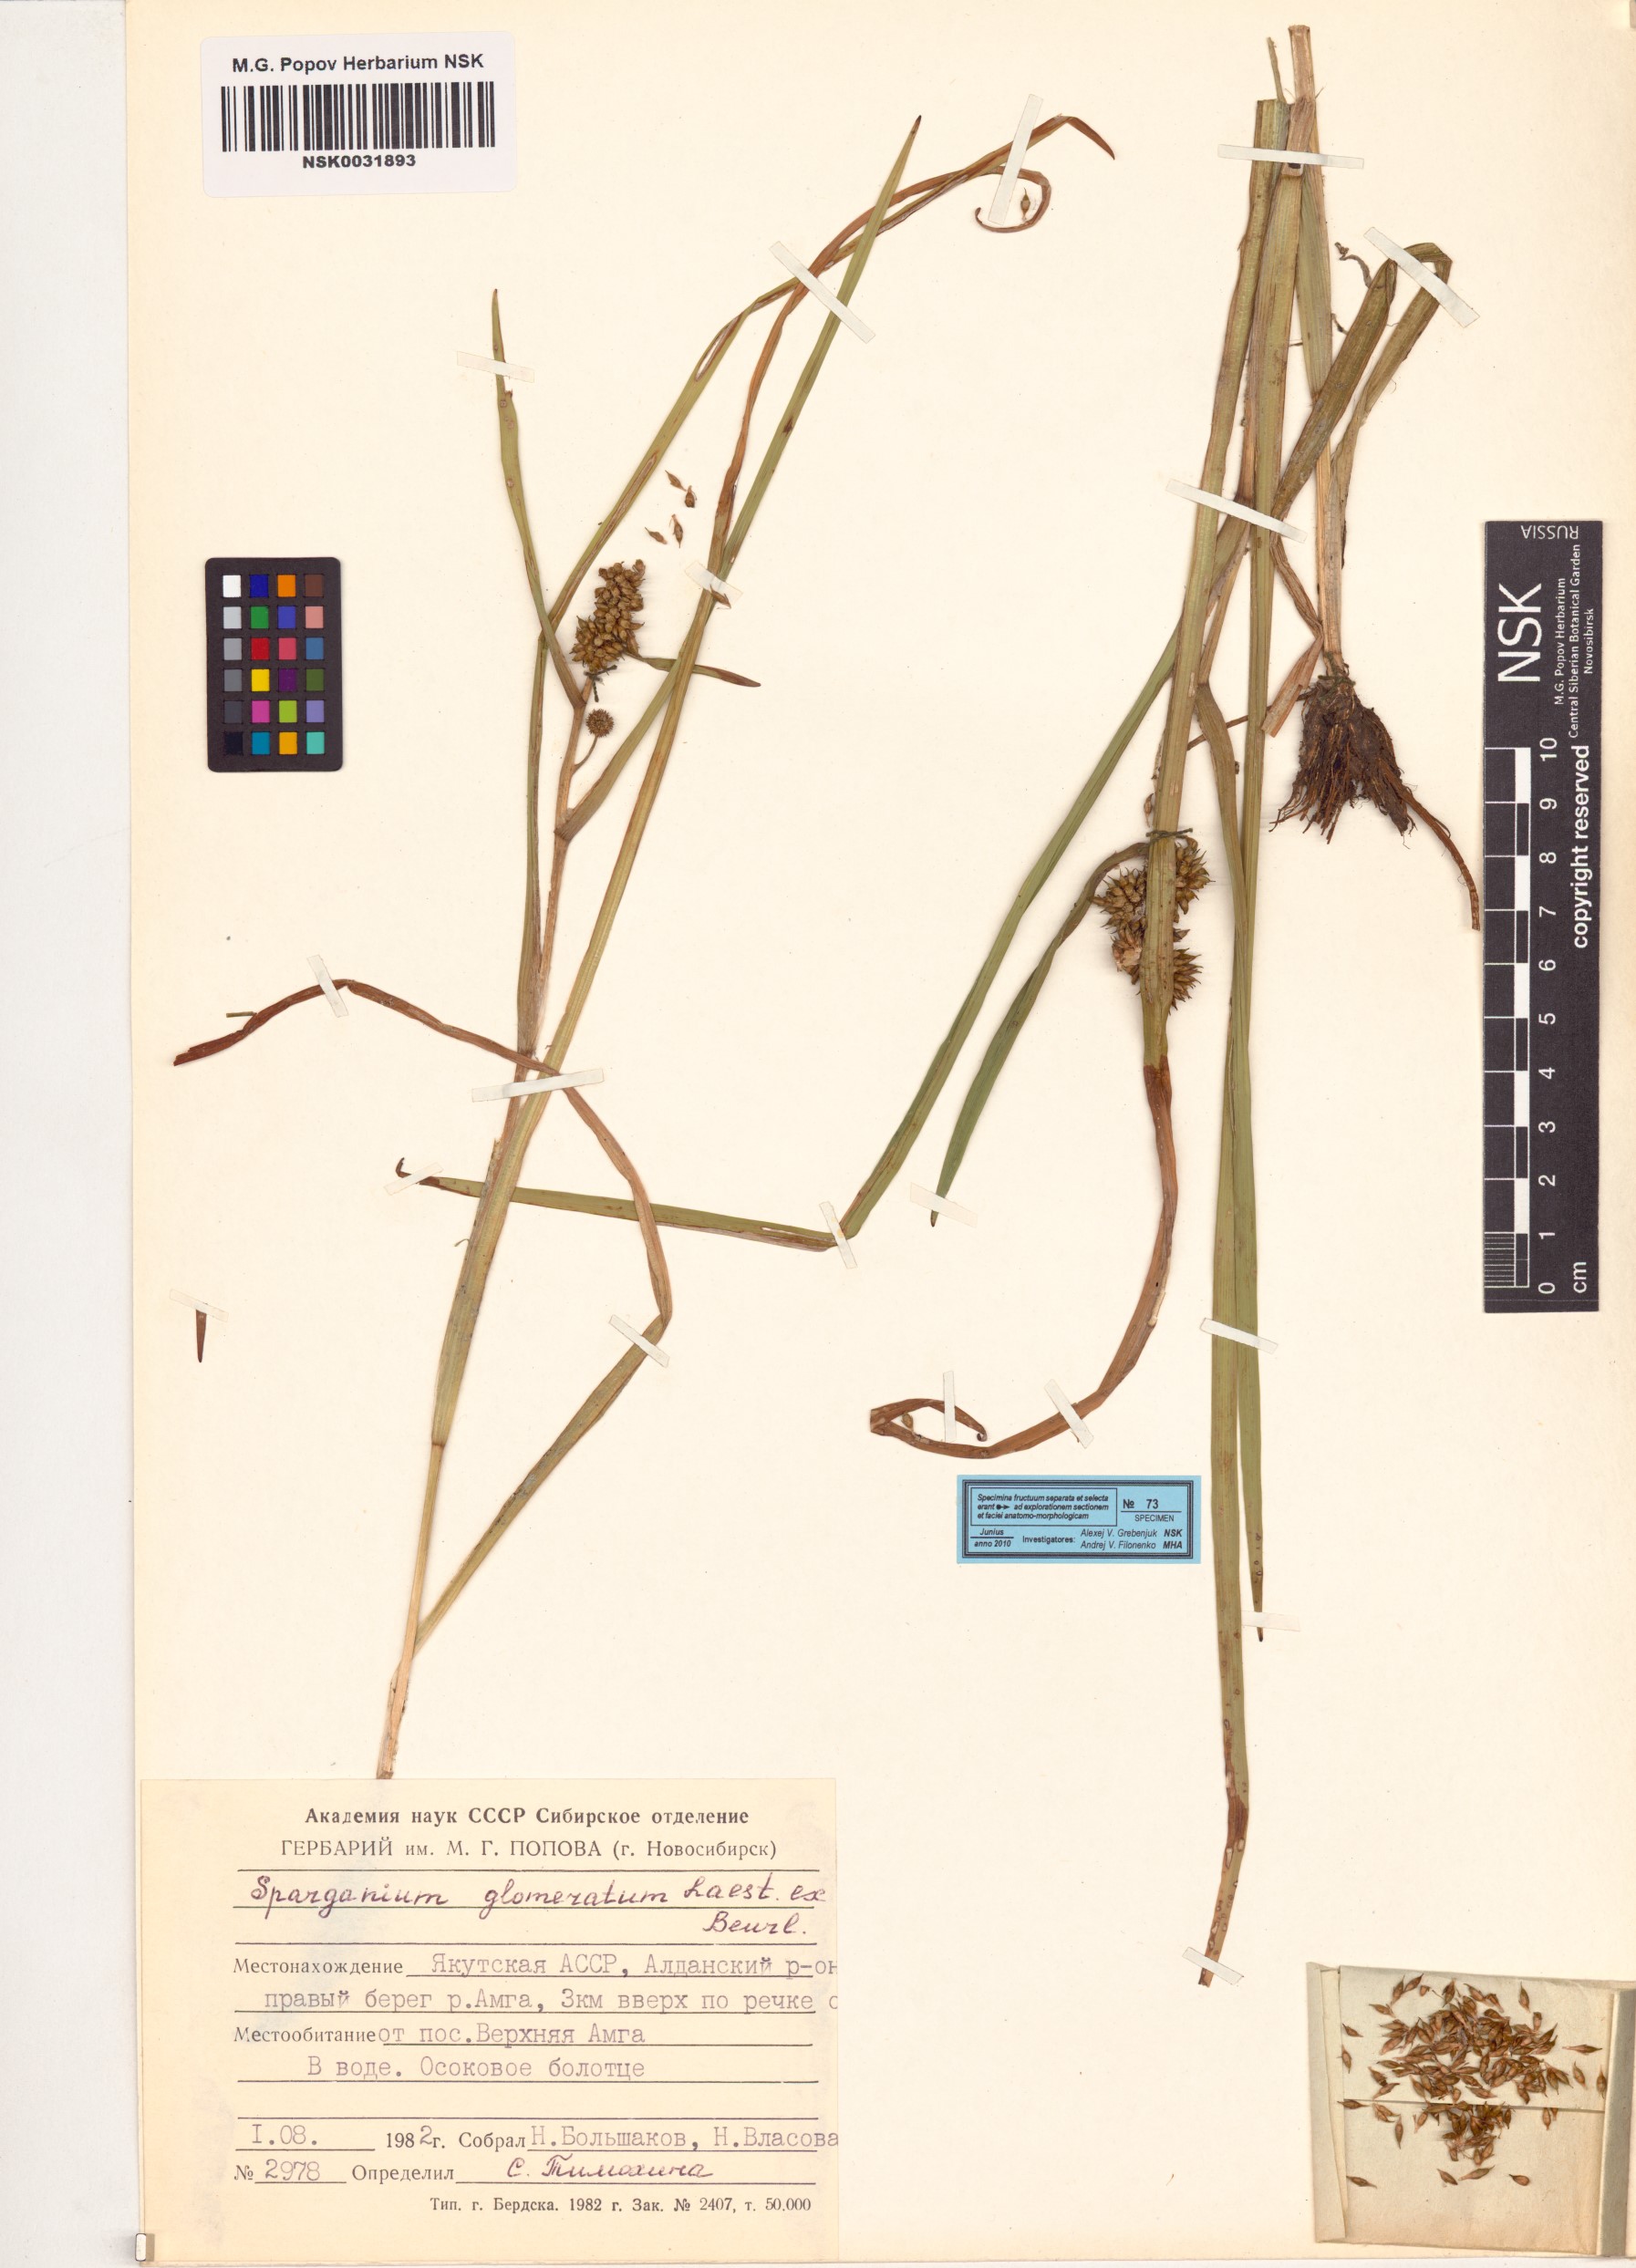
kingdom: Plantae
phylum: Tracheophyta
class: Liliopsida
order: Poales
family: Typhaceae
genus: Sparganium
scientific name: Sparganium glomeratum
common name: Clustered burreed
